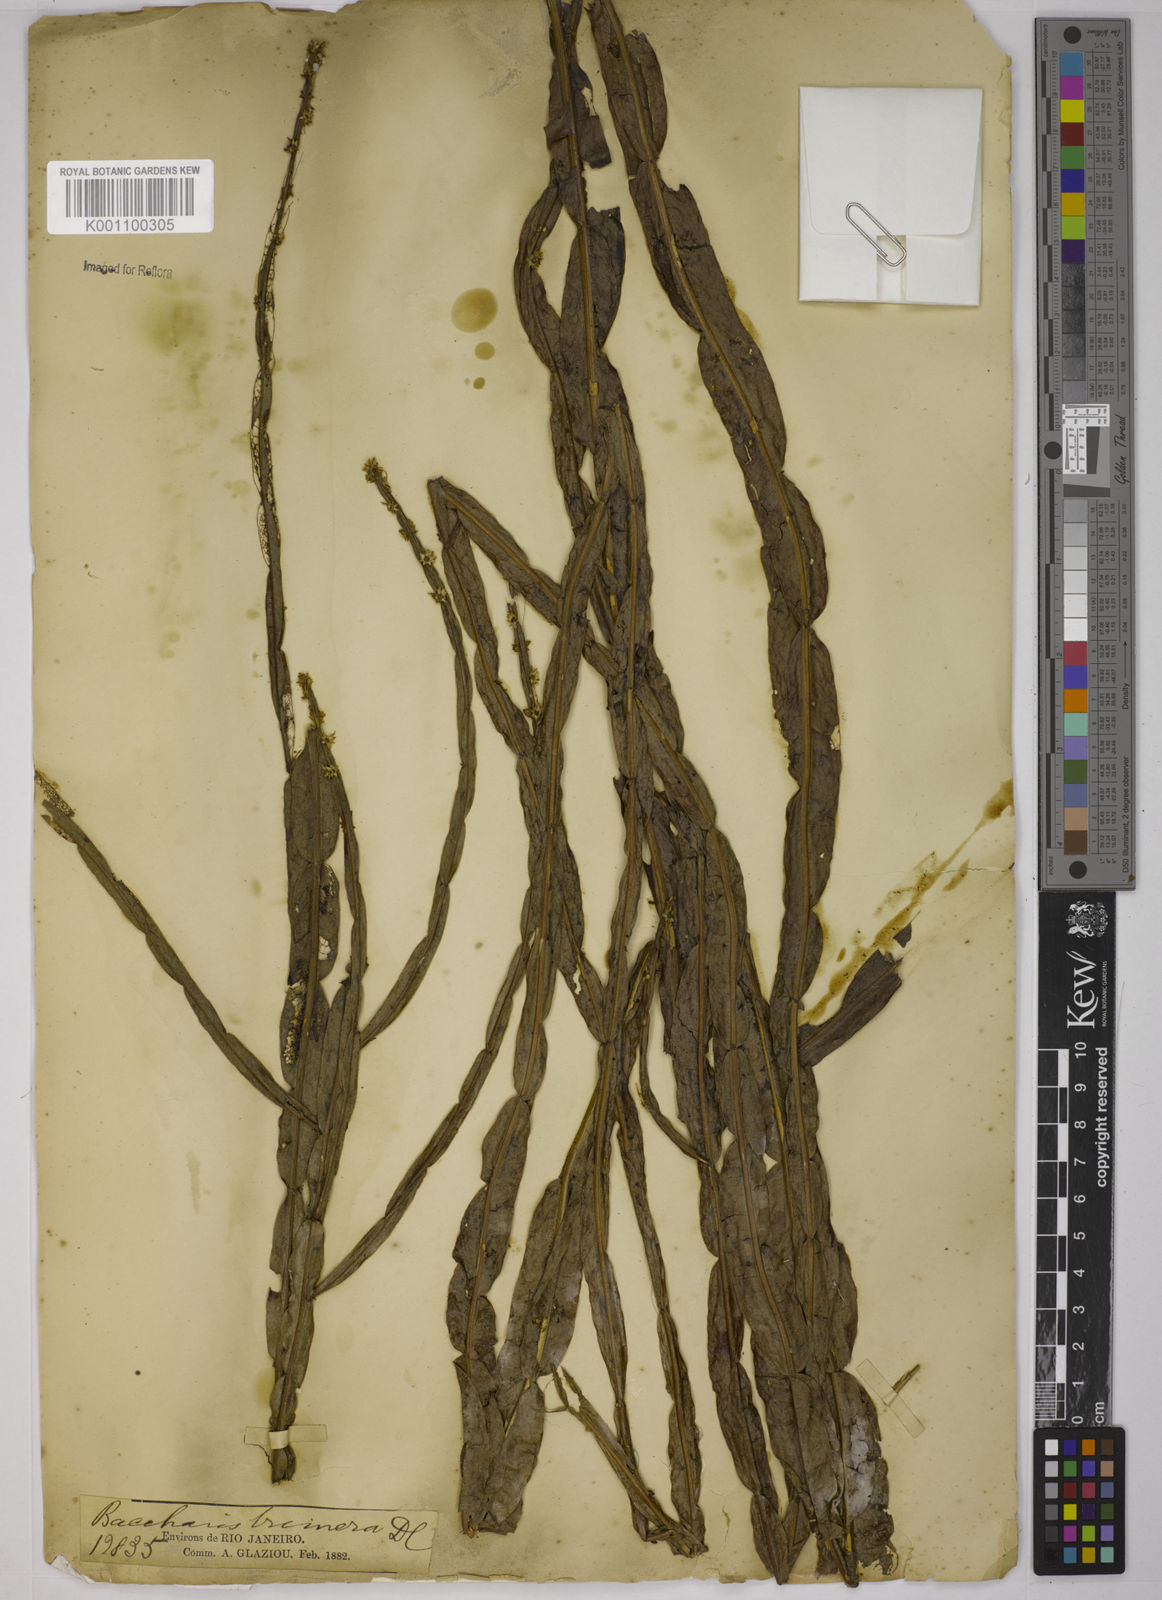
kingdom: Plantae
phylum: Tracheophyta
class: Magnoliopsida
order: Asterales
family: Asteraceae
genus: Baccharis
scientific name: Baccharis trimera
